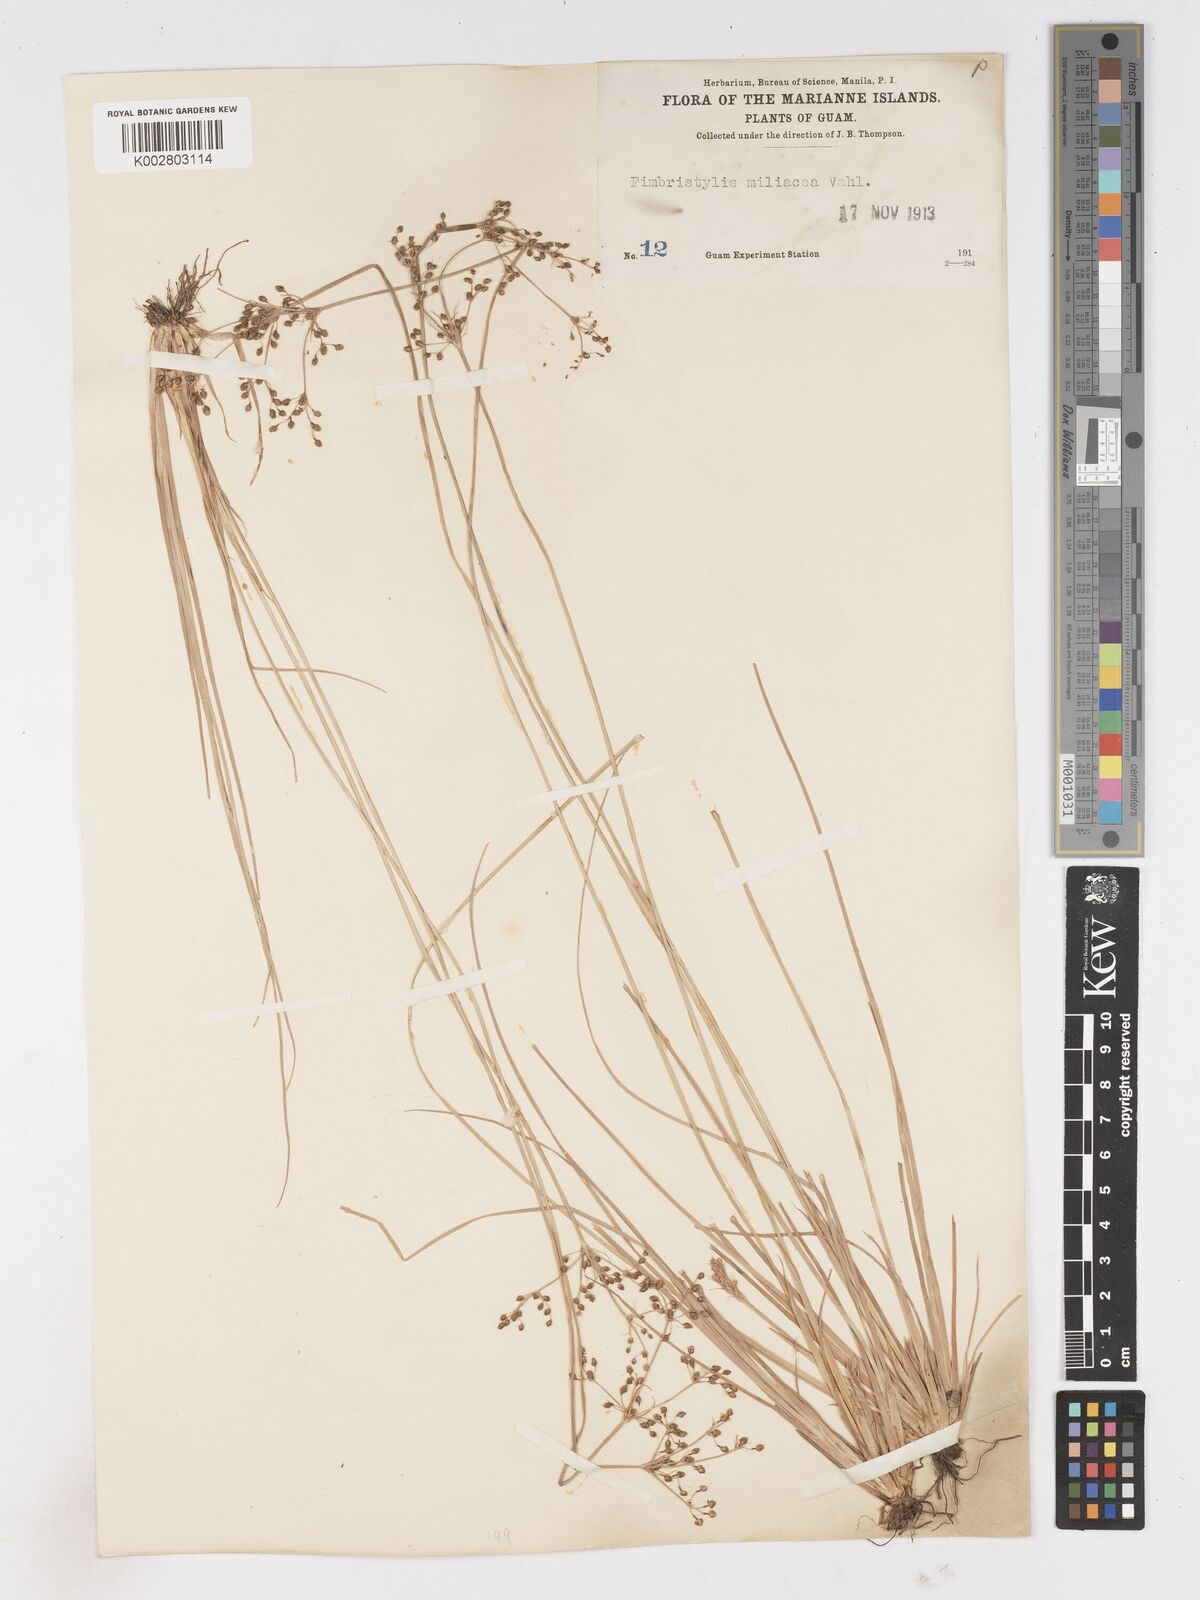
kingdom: Plantae
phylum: Tracheophyta
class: Liliopsida
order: Poales
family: Cyperaceae
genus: Fimbristylis
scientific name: Fimbristylis littoralis
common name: Fimbry
